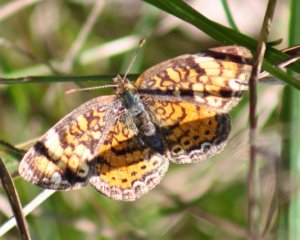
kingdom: Animalia
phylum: Arthropoda
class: Insecta
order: Lepidoptera
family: Nymphalidae
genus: Phyciodes
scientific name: Phyciodes tharos
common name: Northern Crescent
